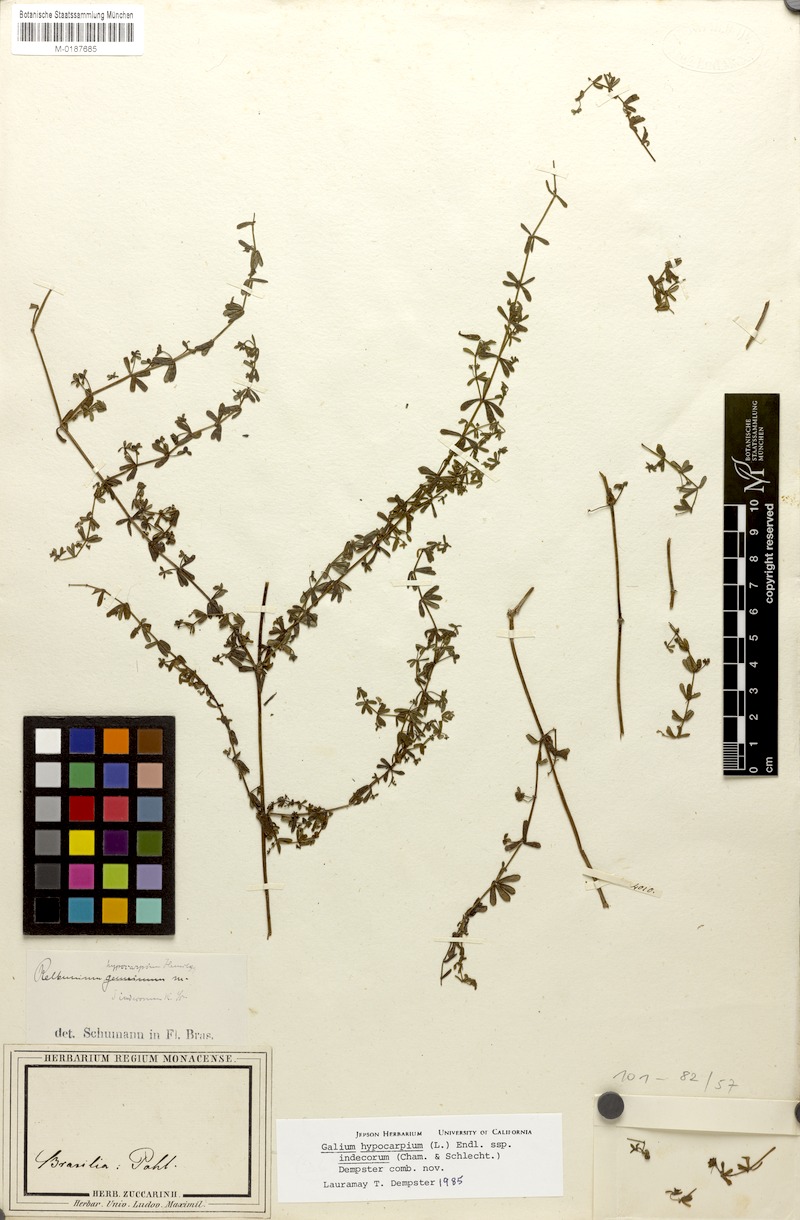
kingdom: Plantae
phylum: Tracheophyta
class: Magnoliopsida
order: Gentianales
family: Rubiaceae
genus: Galium
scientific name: Galium hypocarpium
